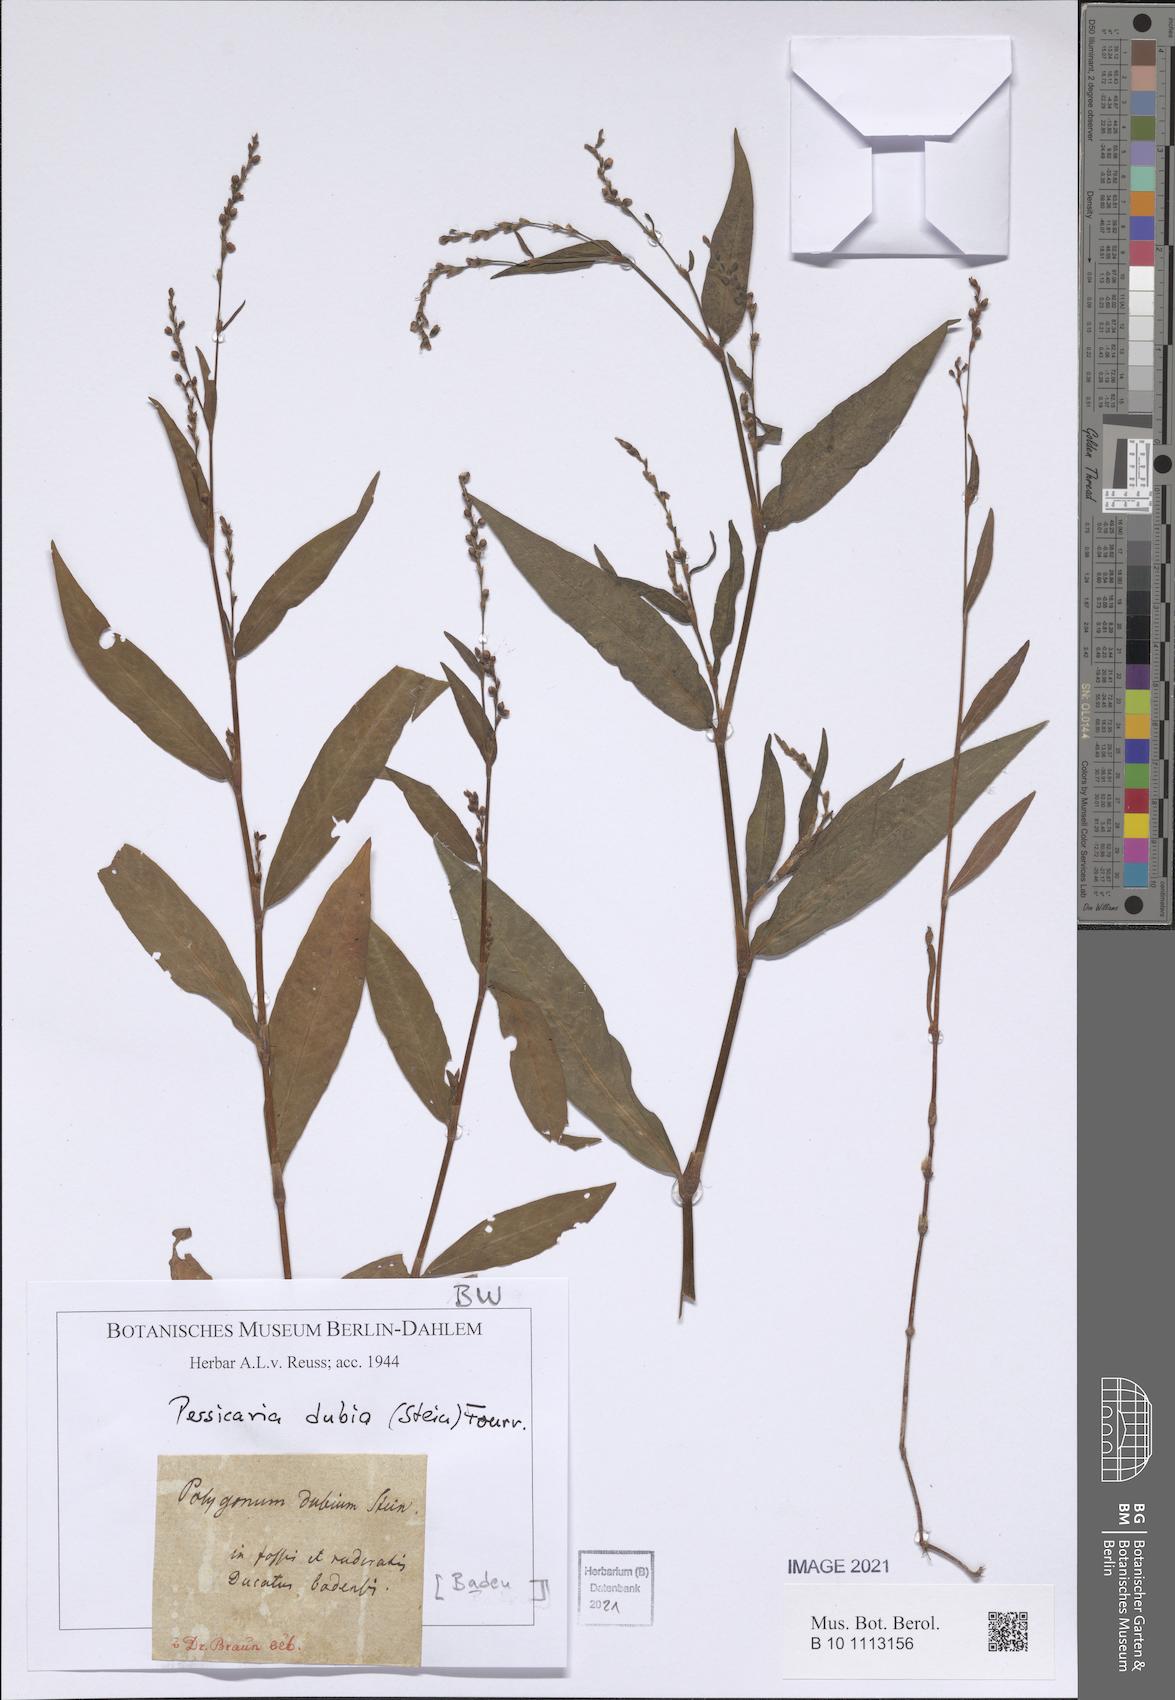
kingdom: Plantae
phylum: Tracheophyta
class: Magnoliopsida
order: Caryophyllales
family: Polygonaceae
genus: Persicaria
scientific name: Persicaria mitis
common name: Tasteless water-pepper
